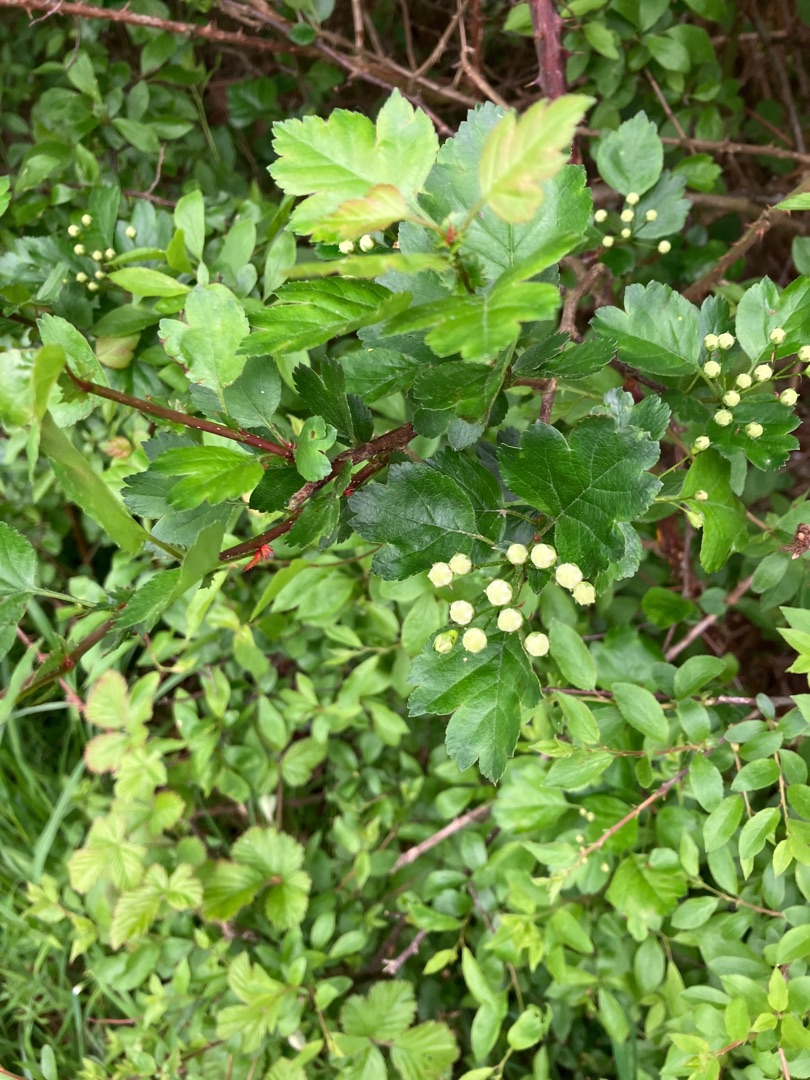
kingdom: Plantae
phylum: Tracheophyta
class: Magnoliopsida
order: Rosales
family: Rosaceae
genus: Crataegus
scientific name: Crataegus media
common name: Almindelig hvidtjørn × engriflet hvidtjørn
